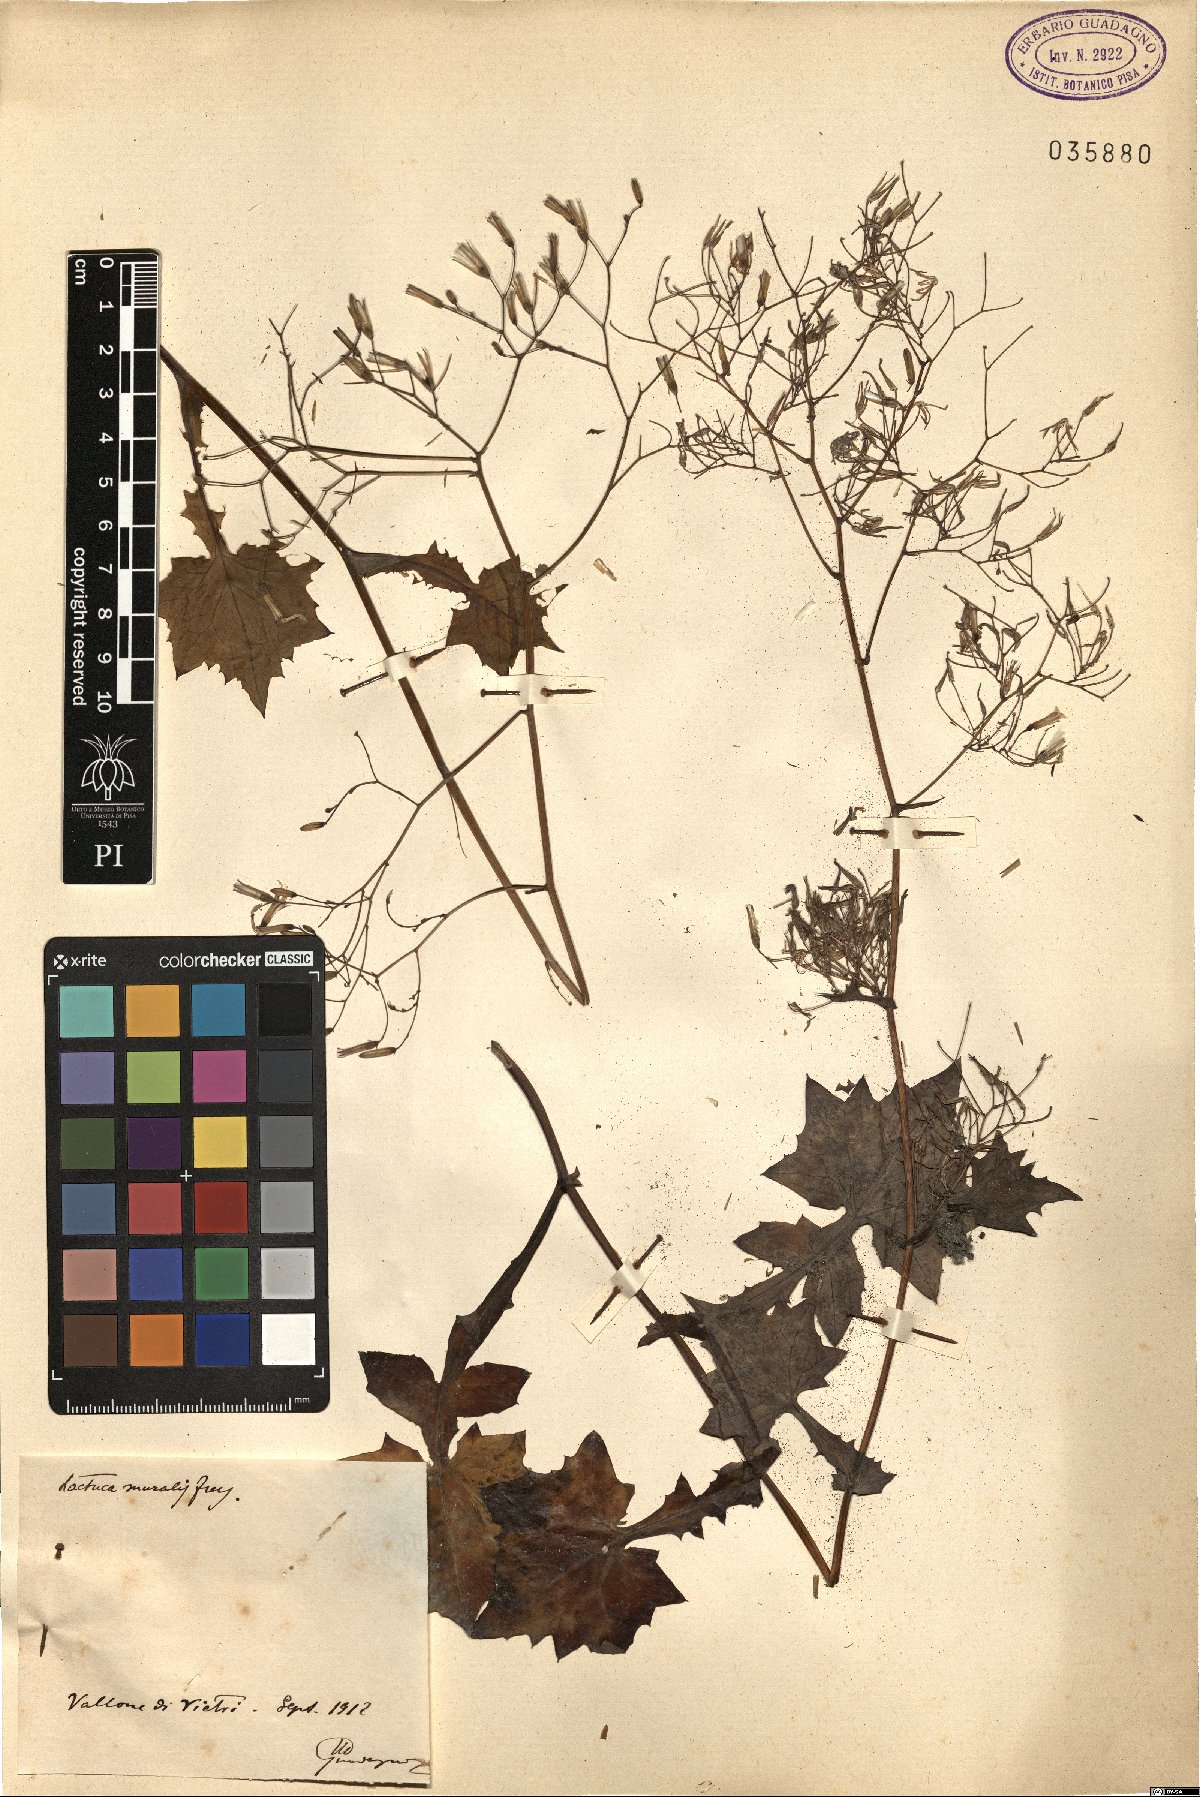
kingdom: Plantae
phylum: Tracheophyta
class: Magnoliopsida
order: Asterales
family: Asteraceae
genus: Mycelis
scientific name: Mycelis muralis
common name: Wall lettuce
